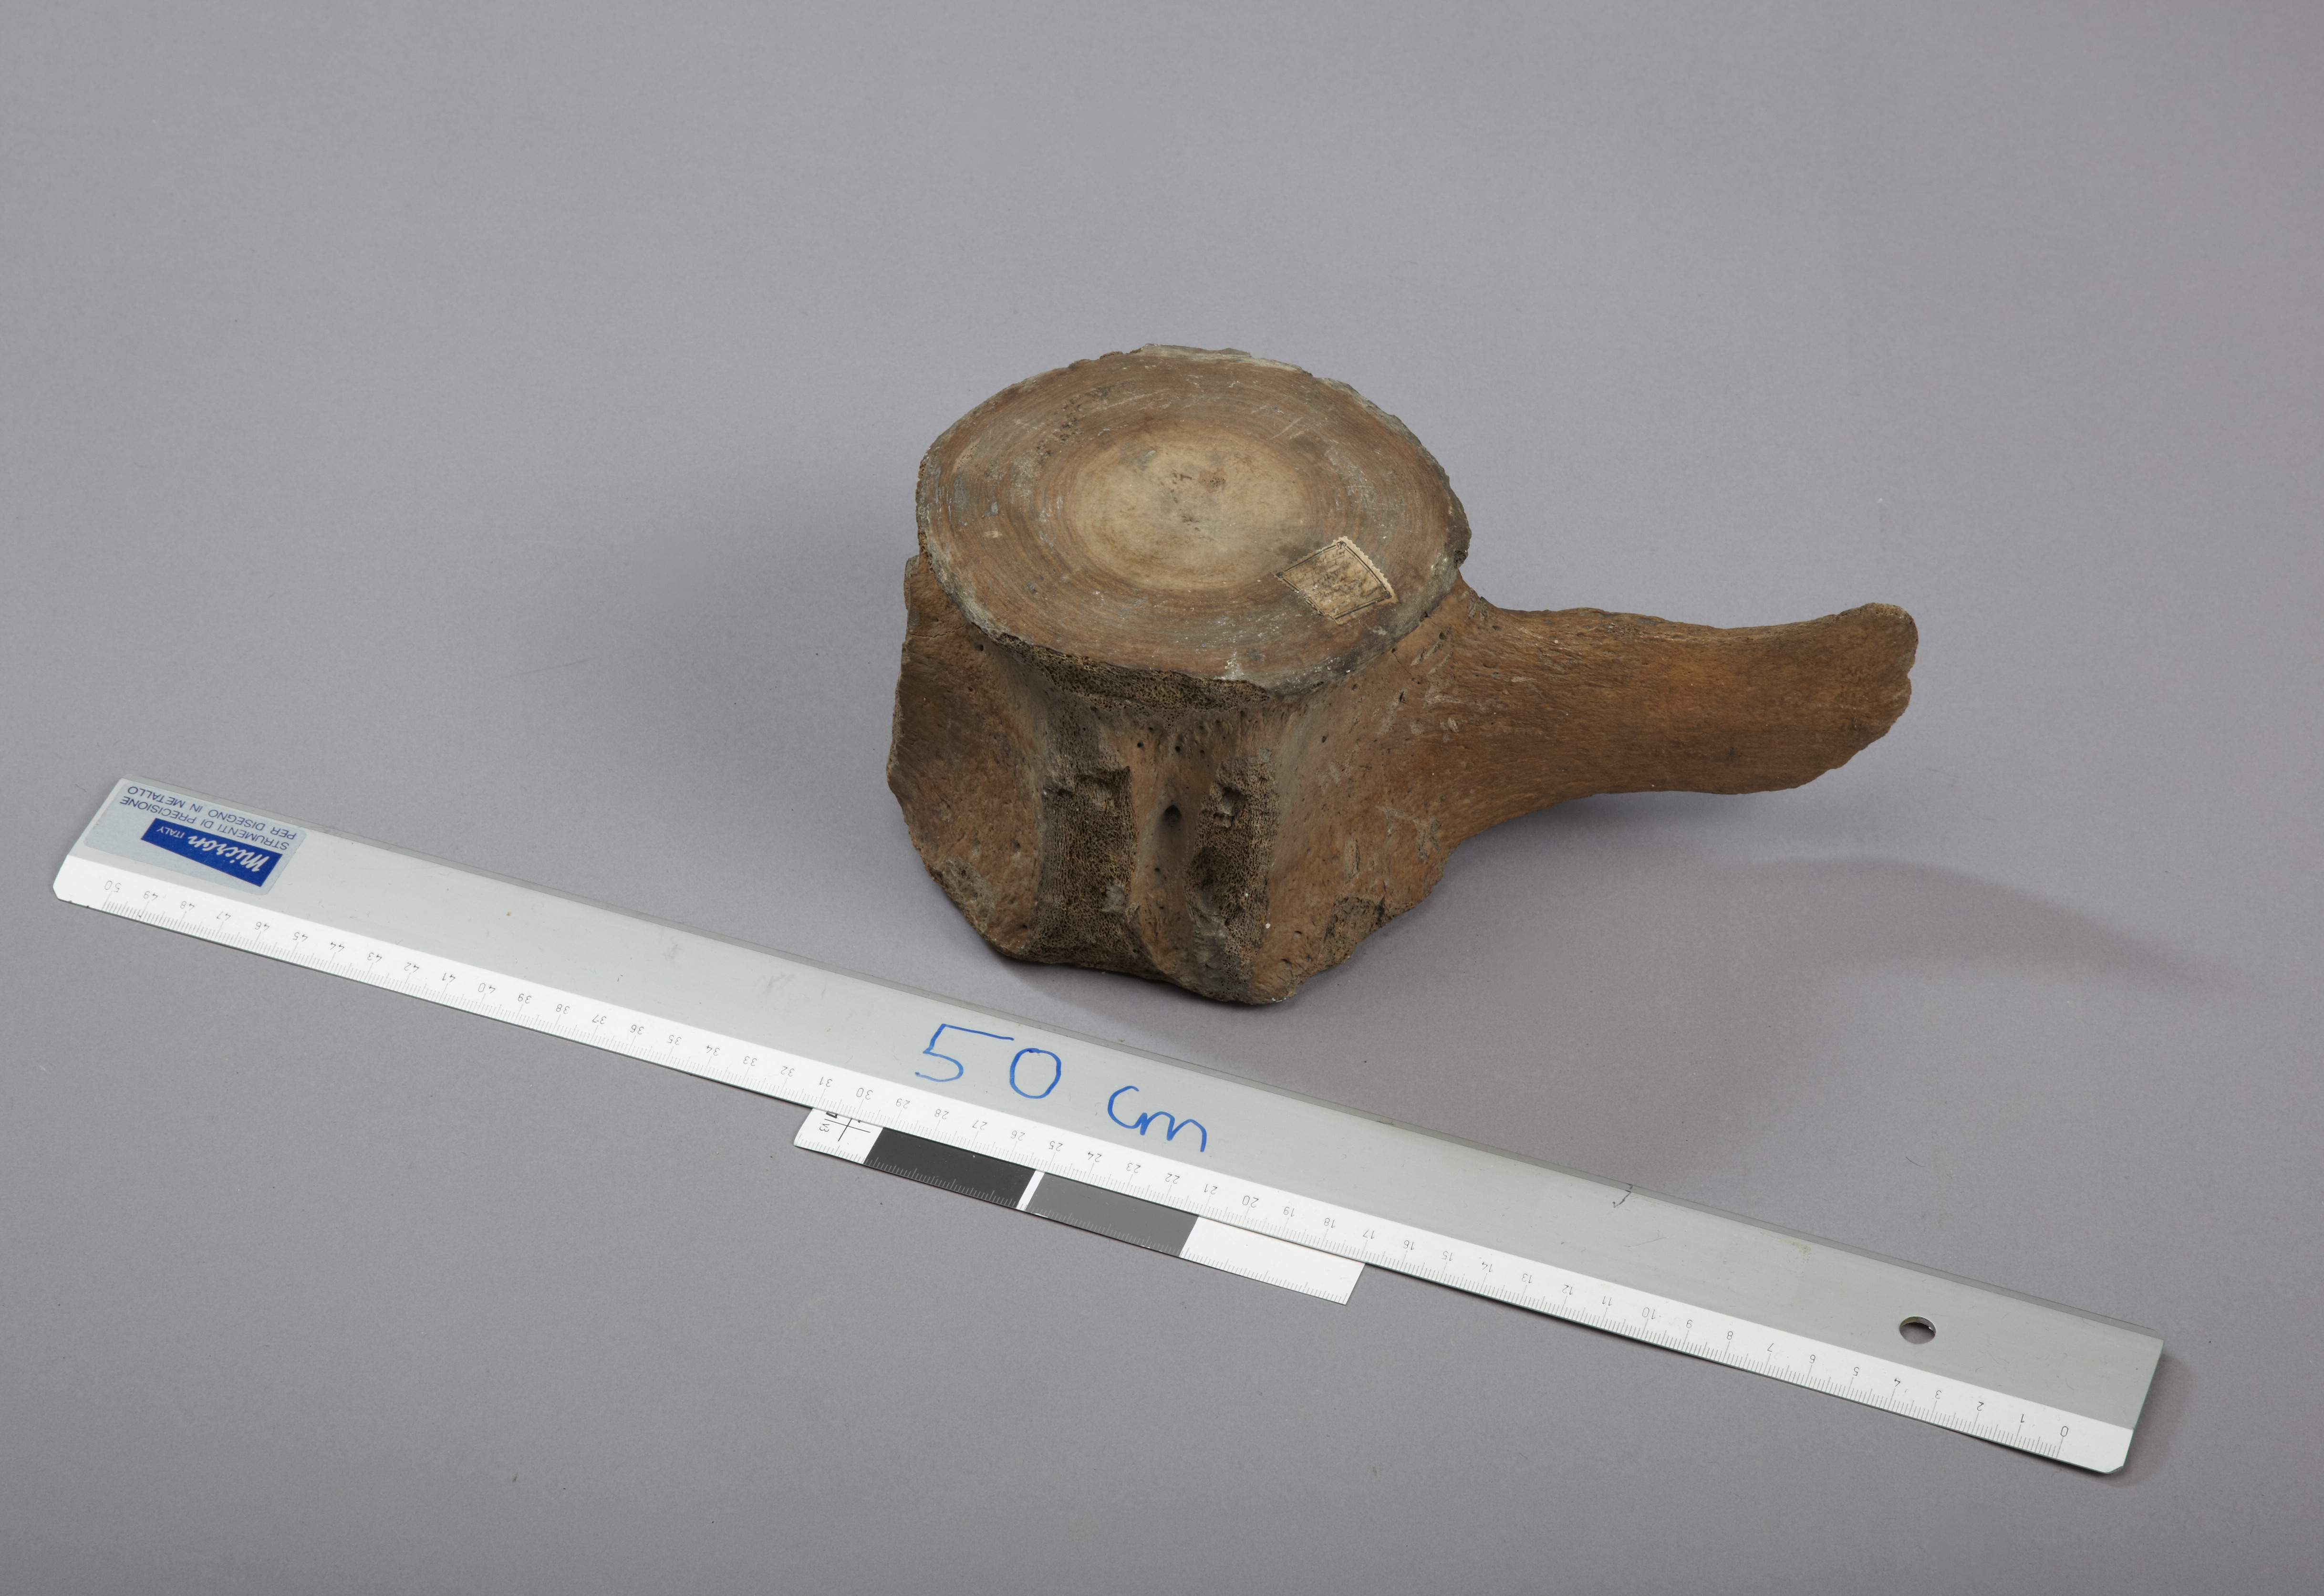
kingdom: Animalia
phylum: Chordata
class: Mammalia
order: Cetacea
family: Delphinidae
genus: Orcinus
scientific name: Orcinus orca
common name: Killer whale
